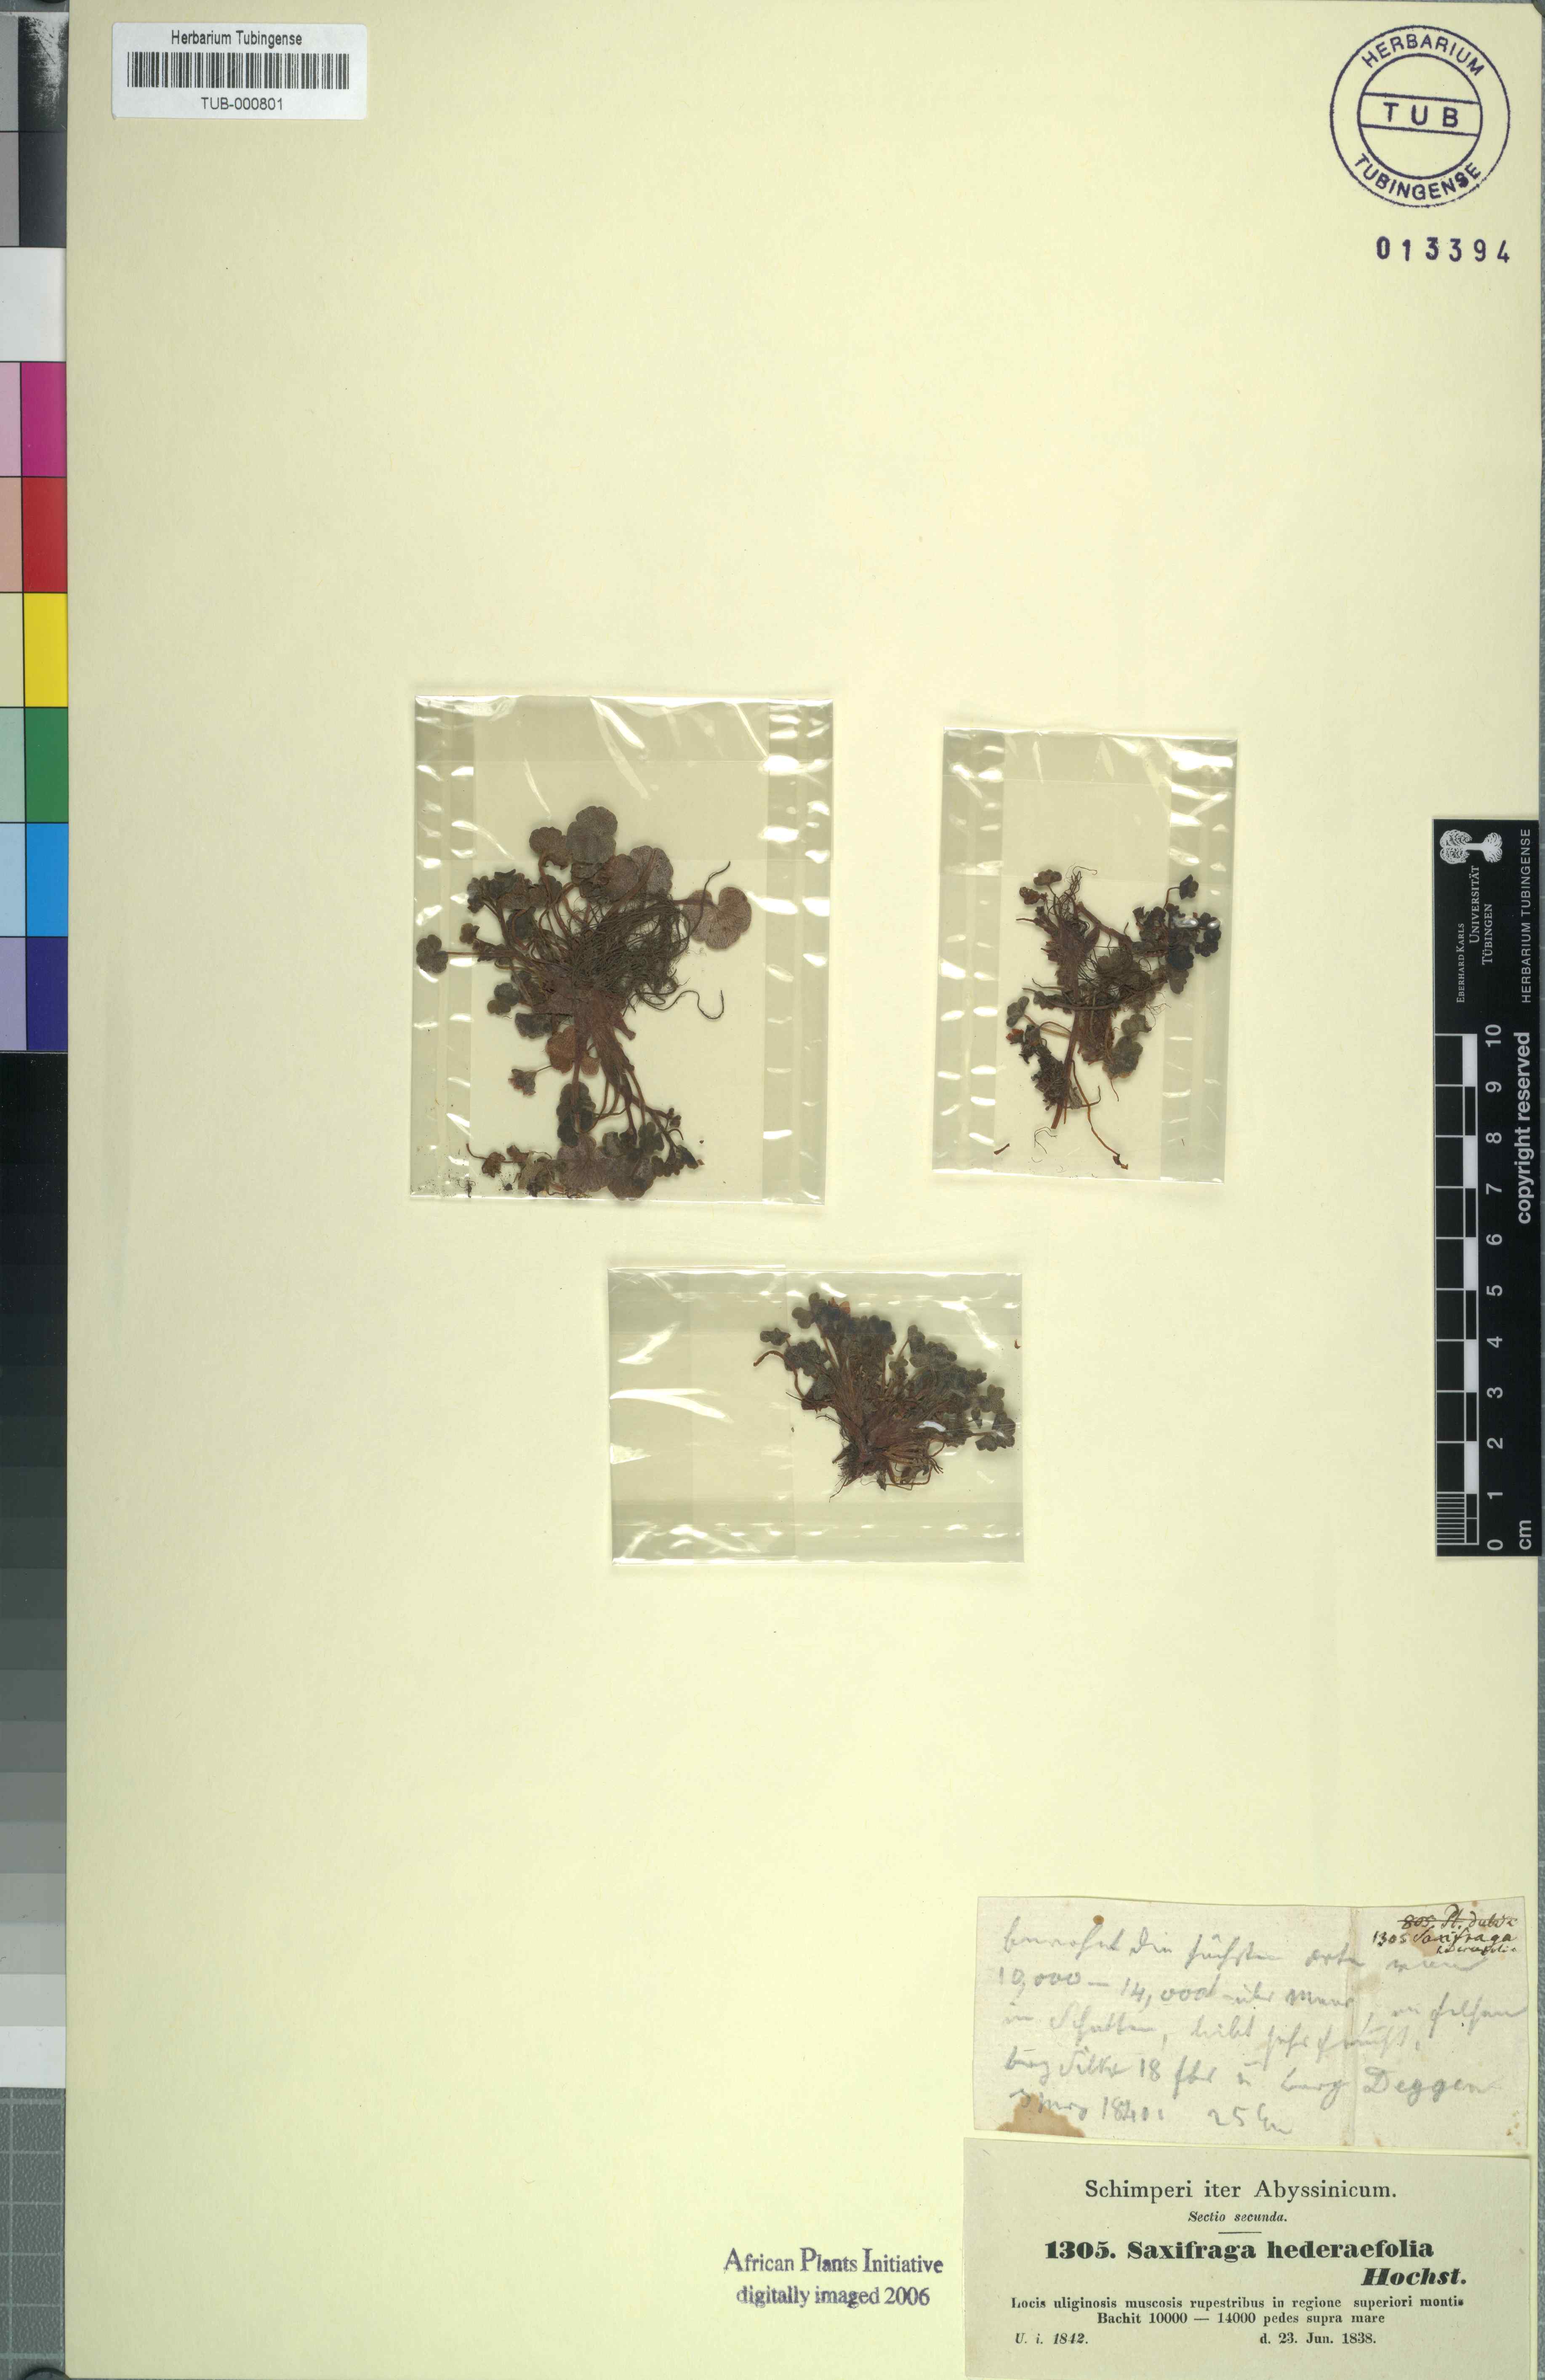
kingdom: Plantae
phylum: Tracheophyta
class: Magnoliopsida
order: Saxifragales
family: Saxifragaceae
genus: Saxifraga
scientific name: Saxifraga hederifolia
